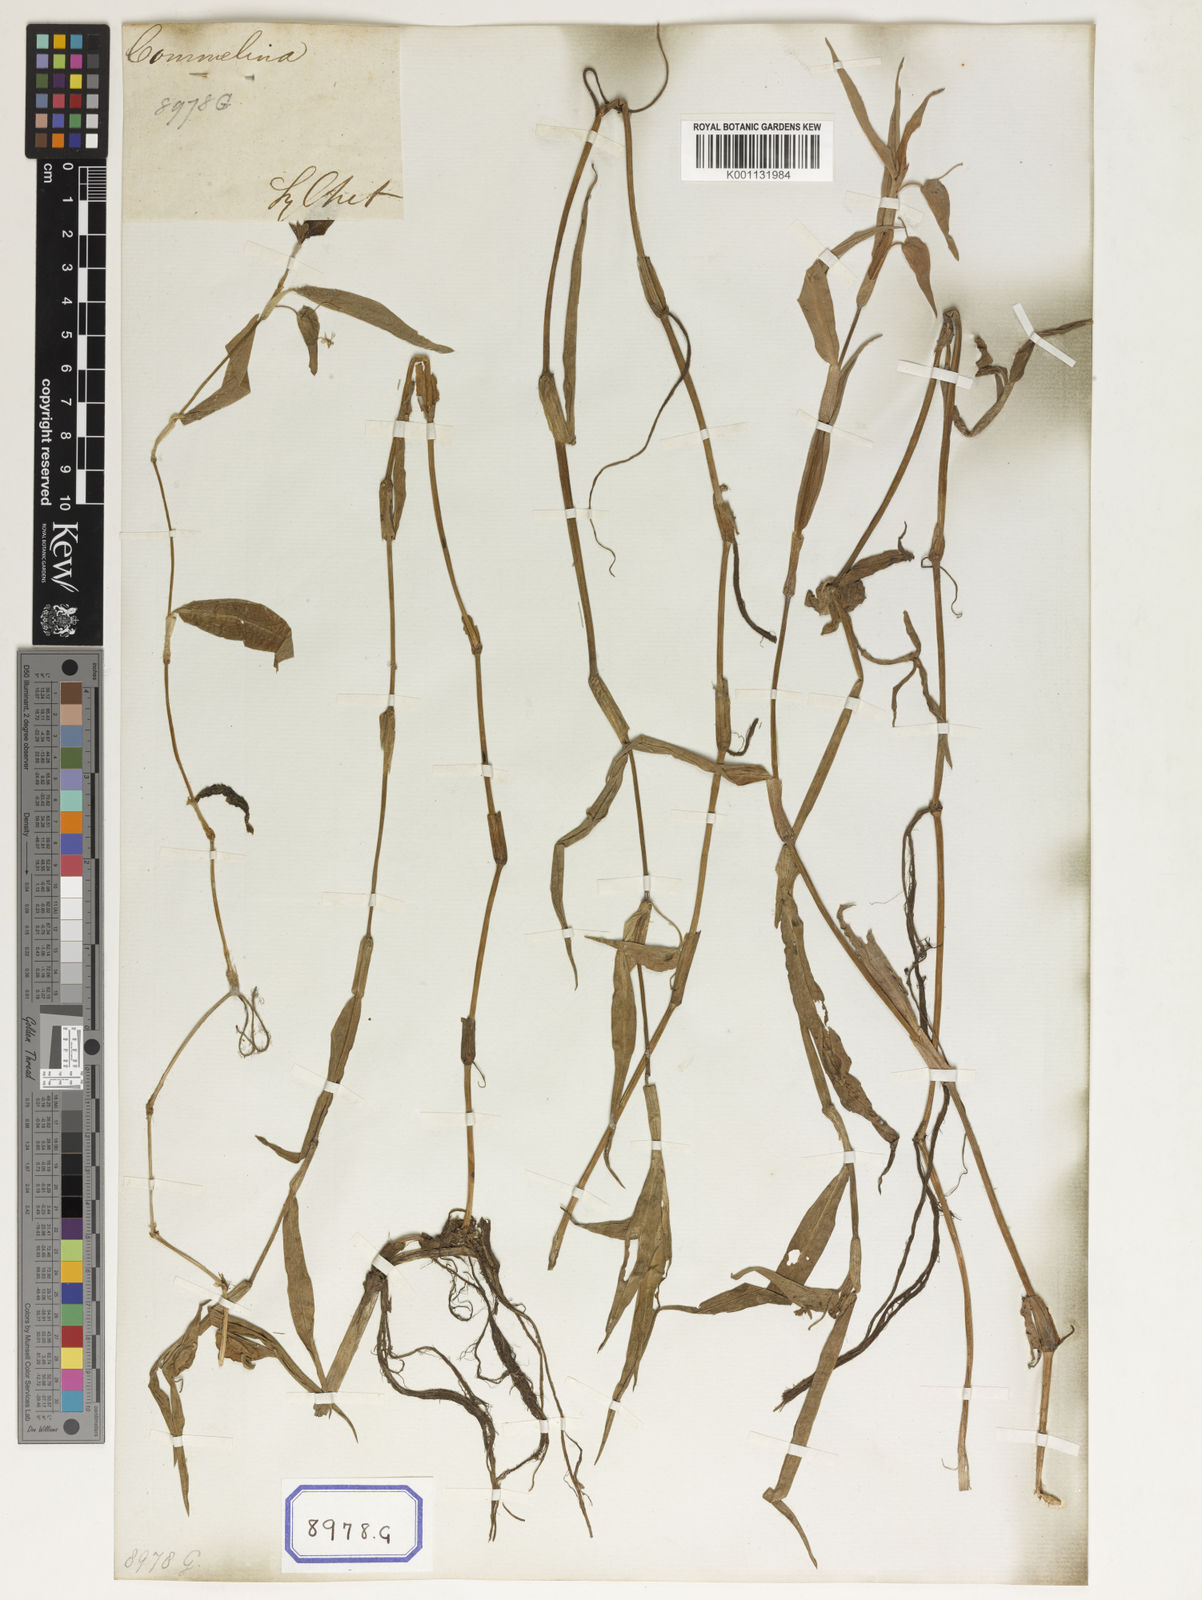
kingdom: Plantae
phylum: Tracheophyta
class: Liliopsida
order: Commelinales
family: Commelinaceae
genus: Commelina
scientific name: Commelina communis
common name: Asiatic dayflower
